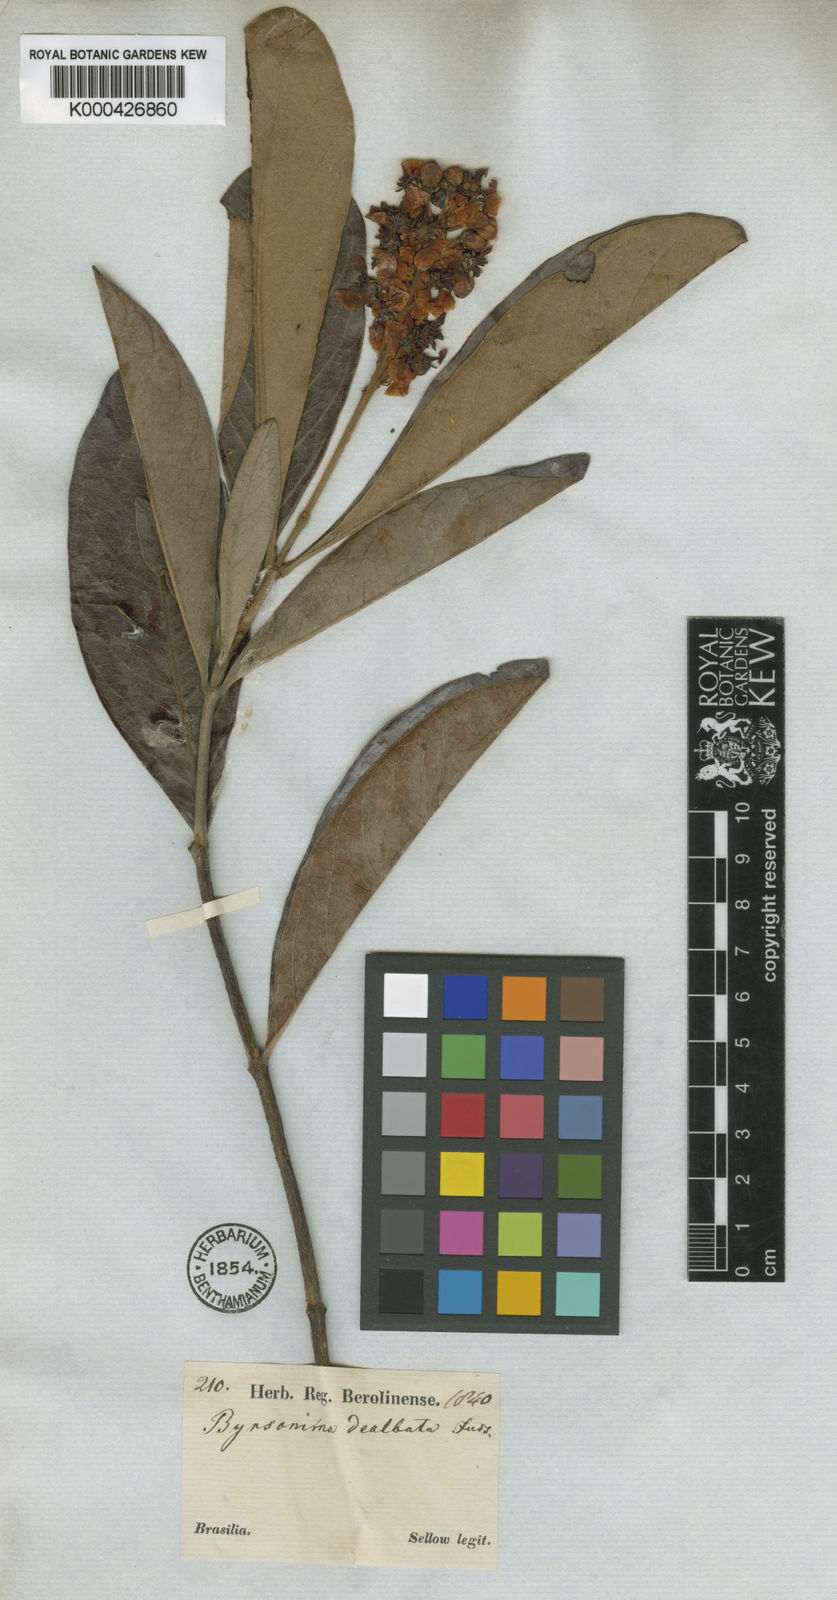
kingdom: Plantae
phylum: Tracheophyta
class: Magnoliopsida
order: Malpighiales
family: Malpighiaceae
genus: Byrsonima
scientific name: Byrsonima
